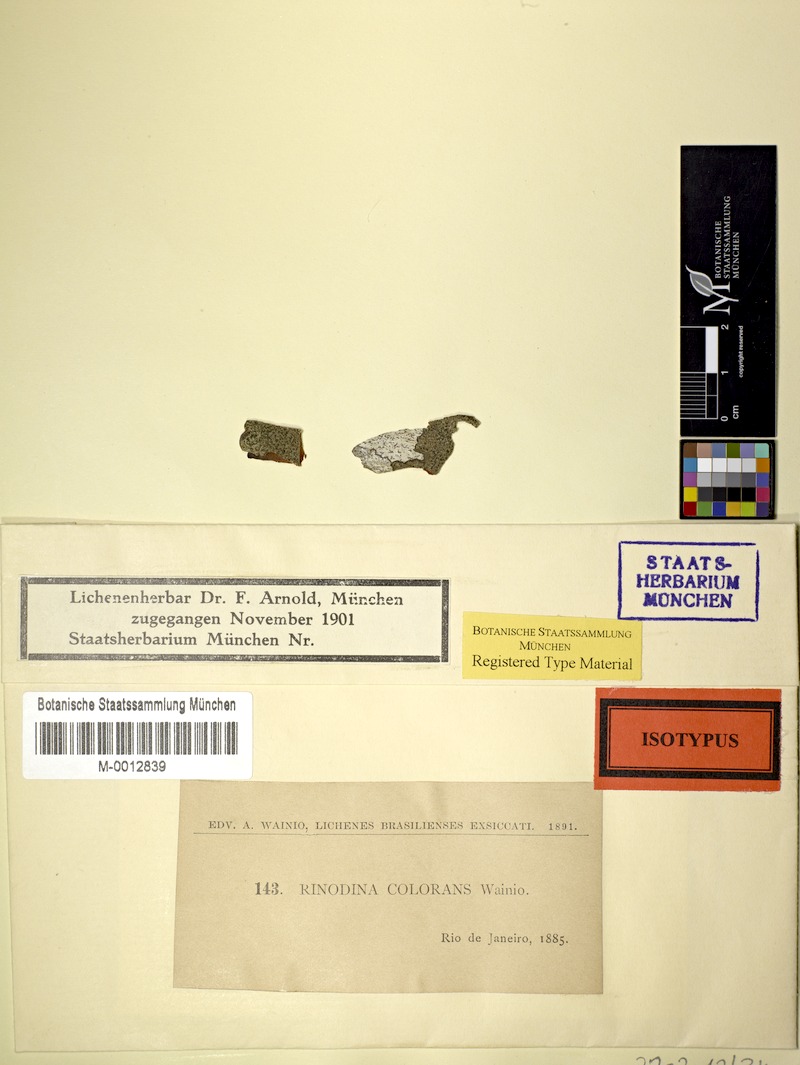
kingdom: Fungi
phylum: Ascomycota
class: Lecanoromycetes
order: Caliciales
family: Physciaceae
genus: Rinodina
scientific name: Rinodina
